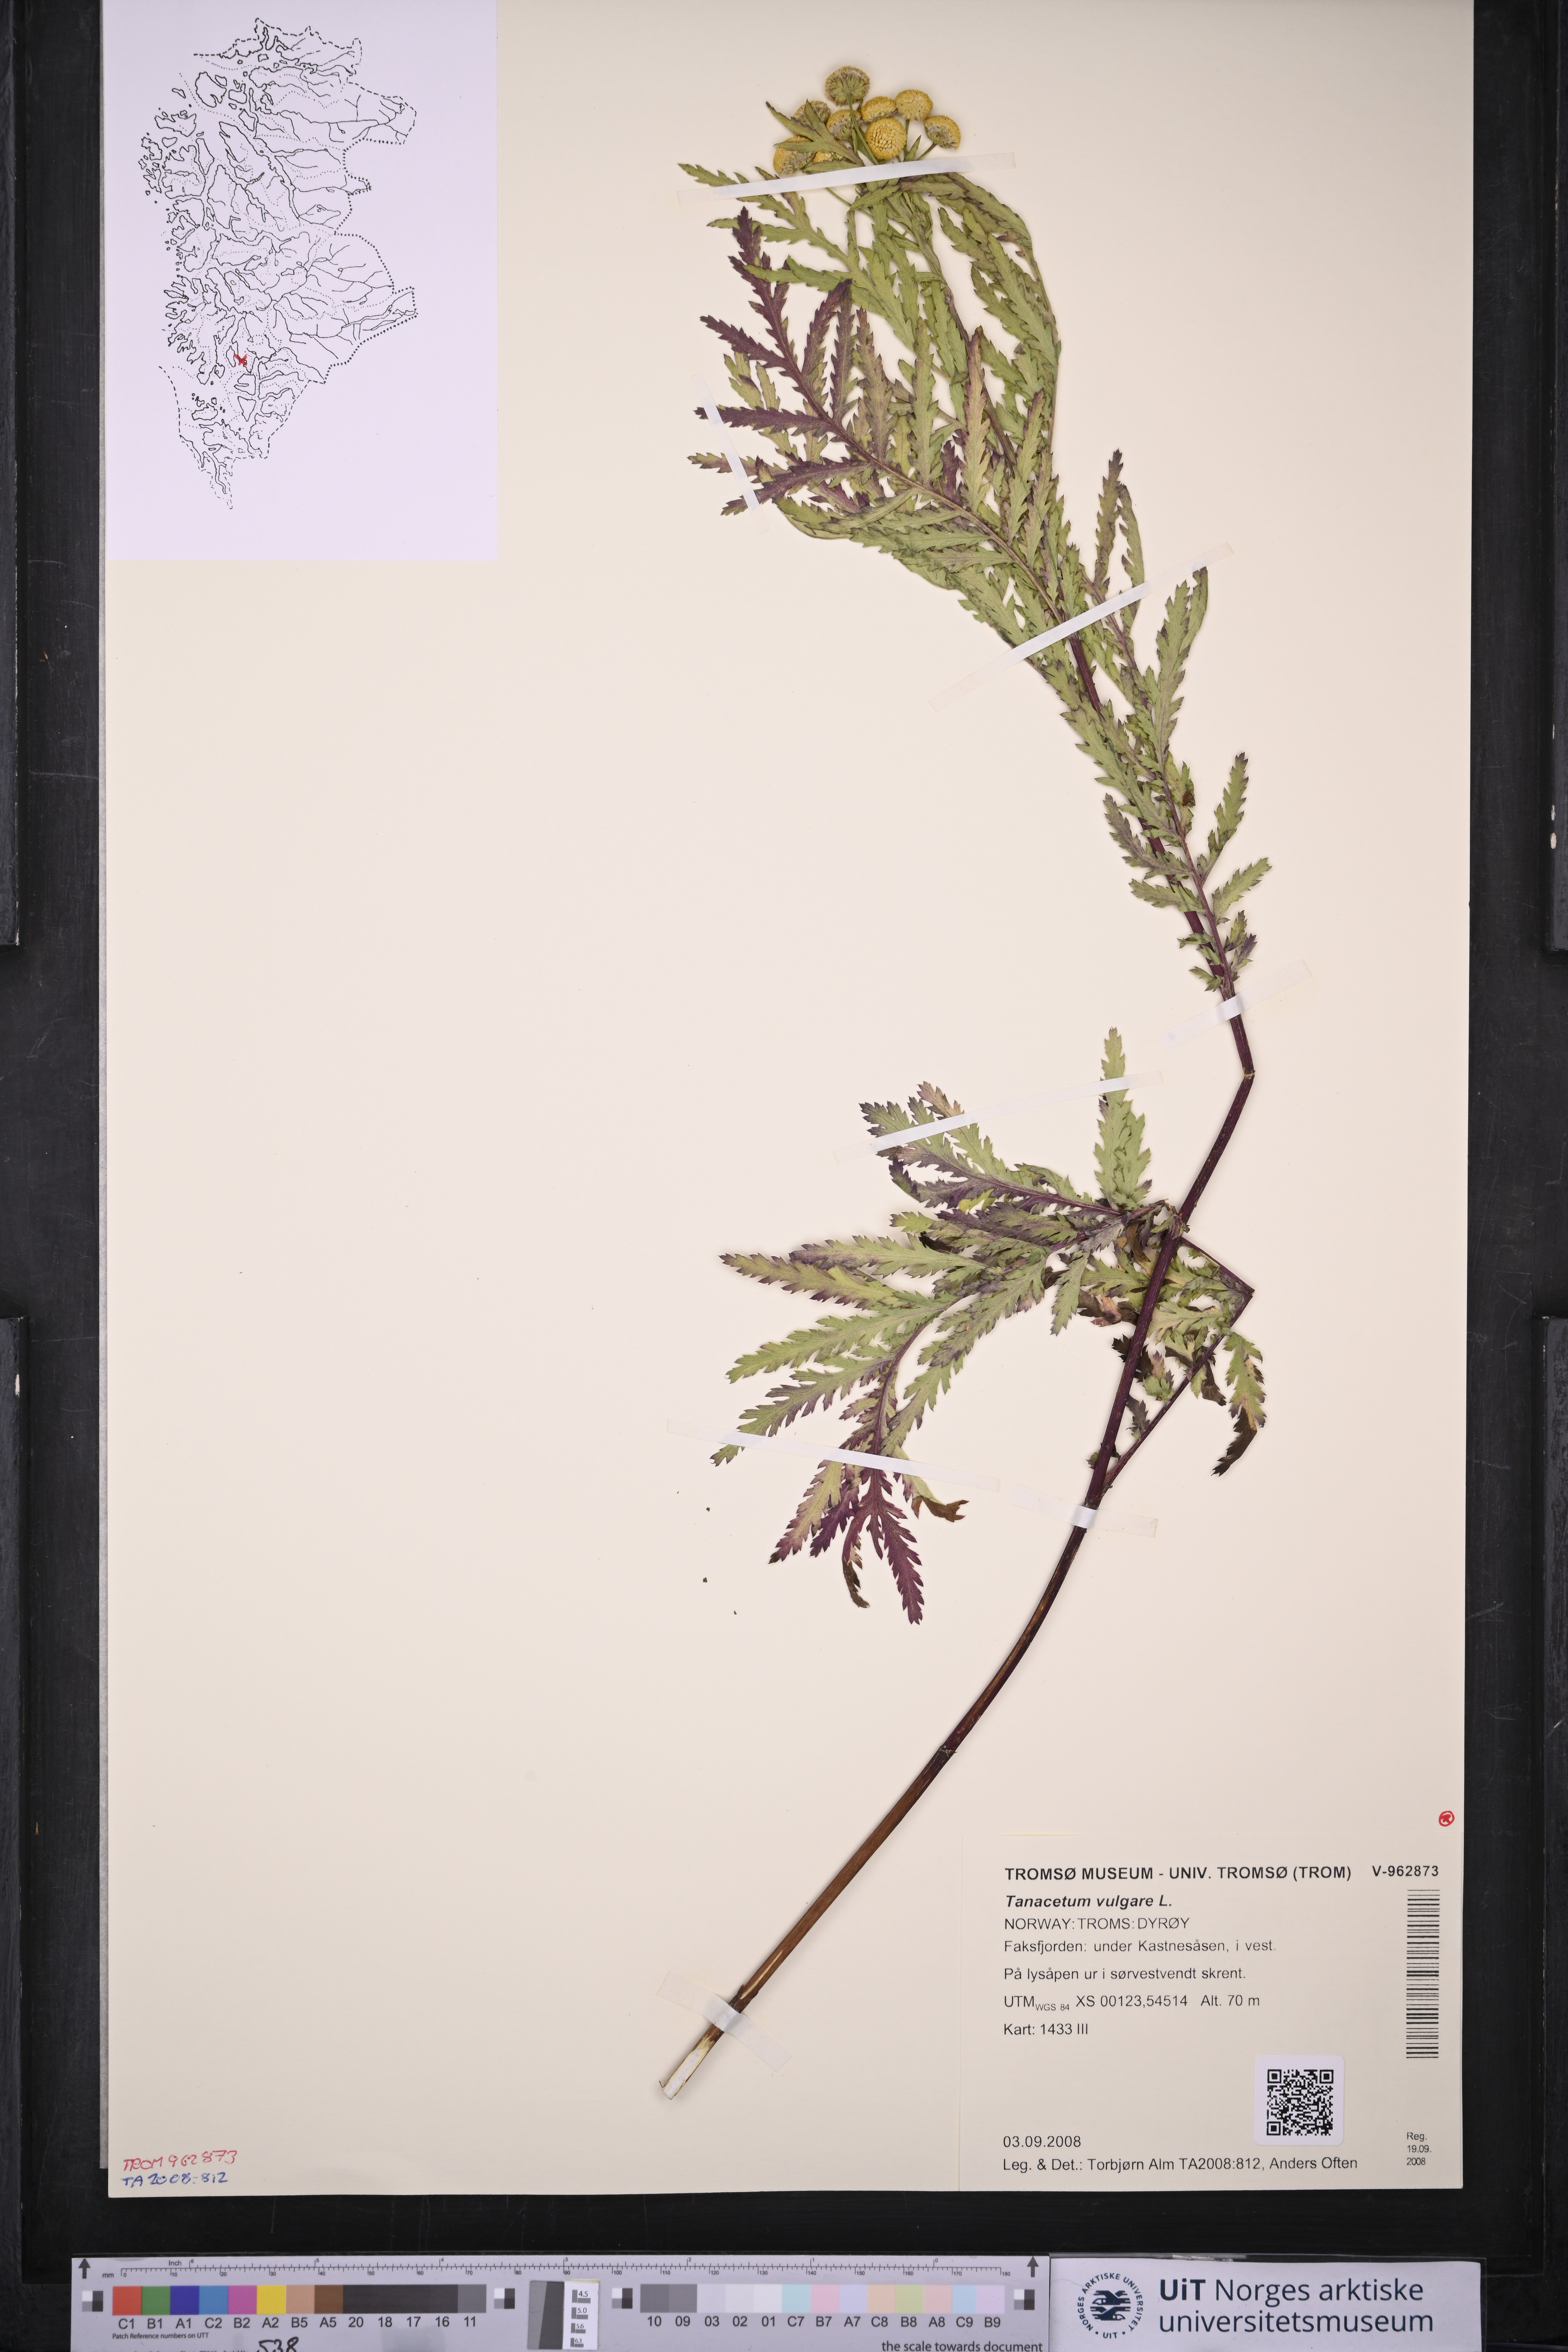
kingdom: Plantae
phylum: Tracheophyta
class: Magnoliopsida
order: Asterales
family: Asteraceae
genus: Tanacetum
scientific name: Tanacetum vulgare
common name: Common tansy
